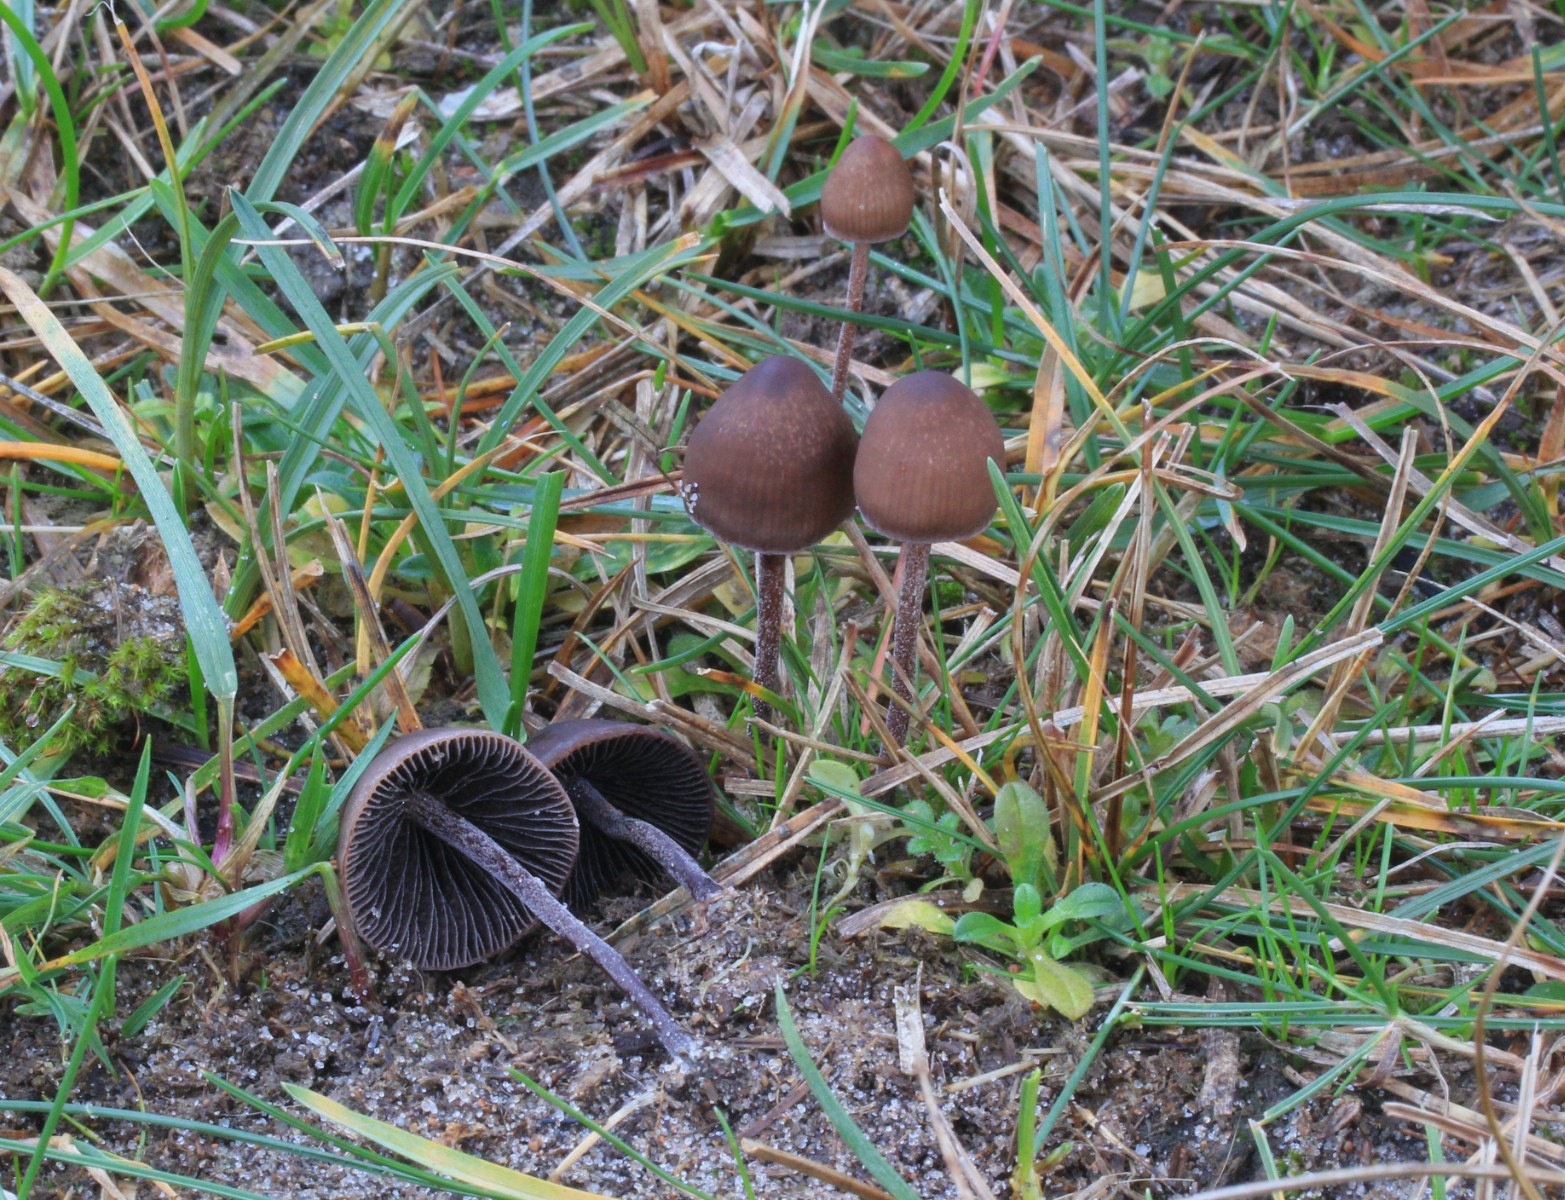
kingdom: Fungi
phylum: Basidiomycota
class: Agaricomycetes
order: Agaricales
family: Bolbitiaceae
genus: Panaeolus
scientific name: Panaeolus acuminatus
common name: høj glanshat
